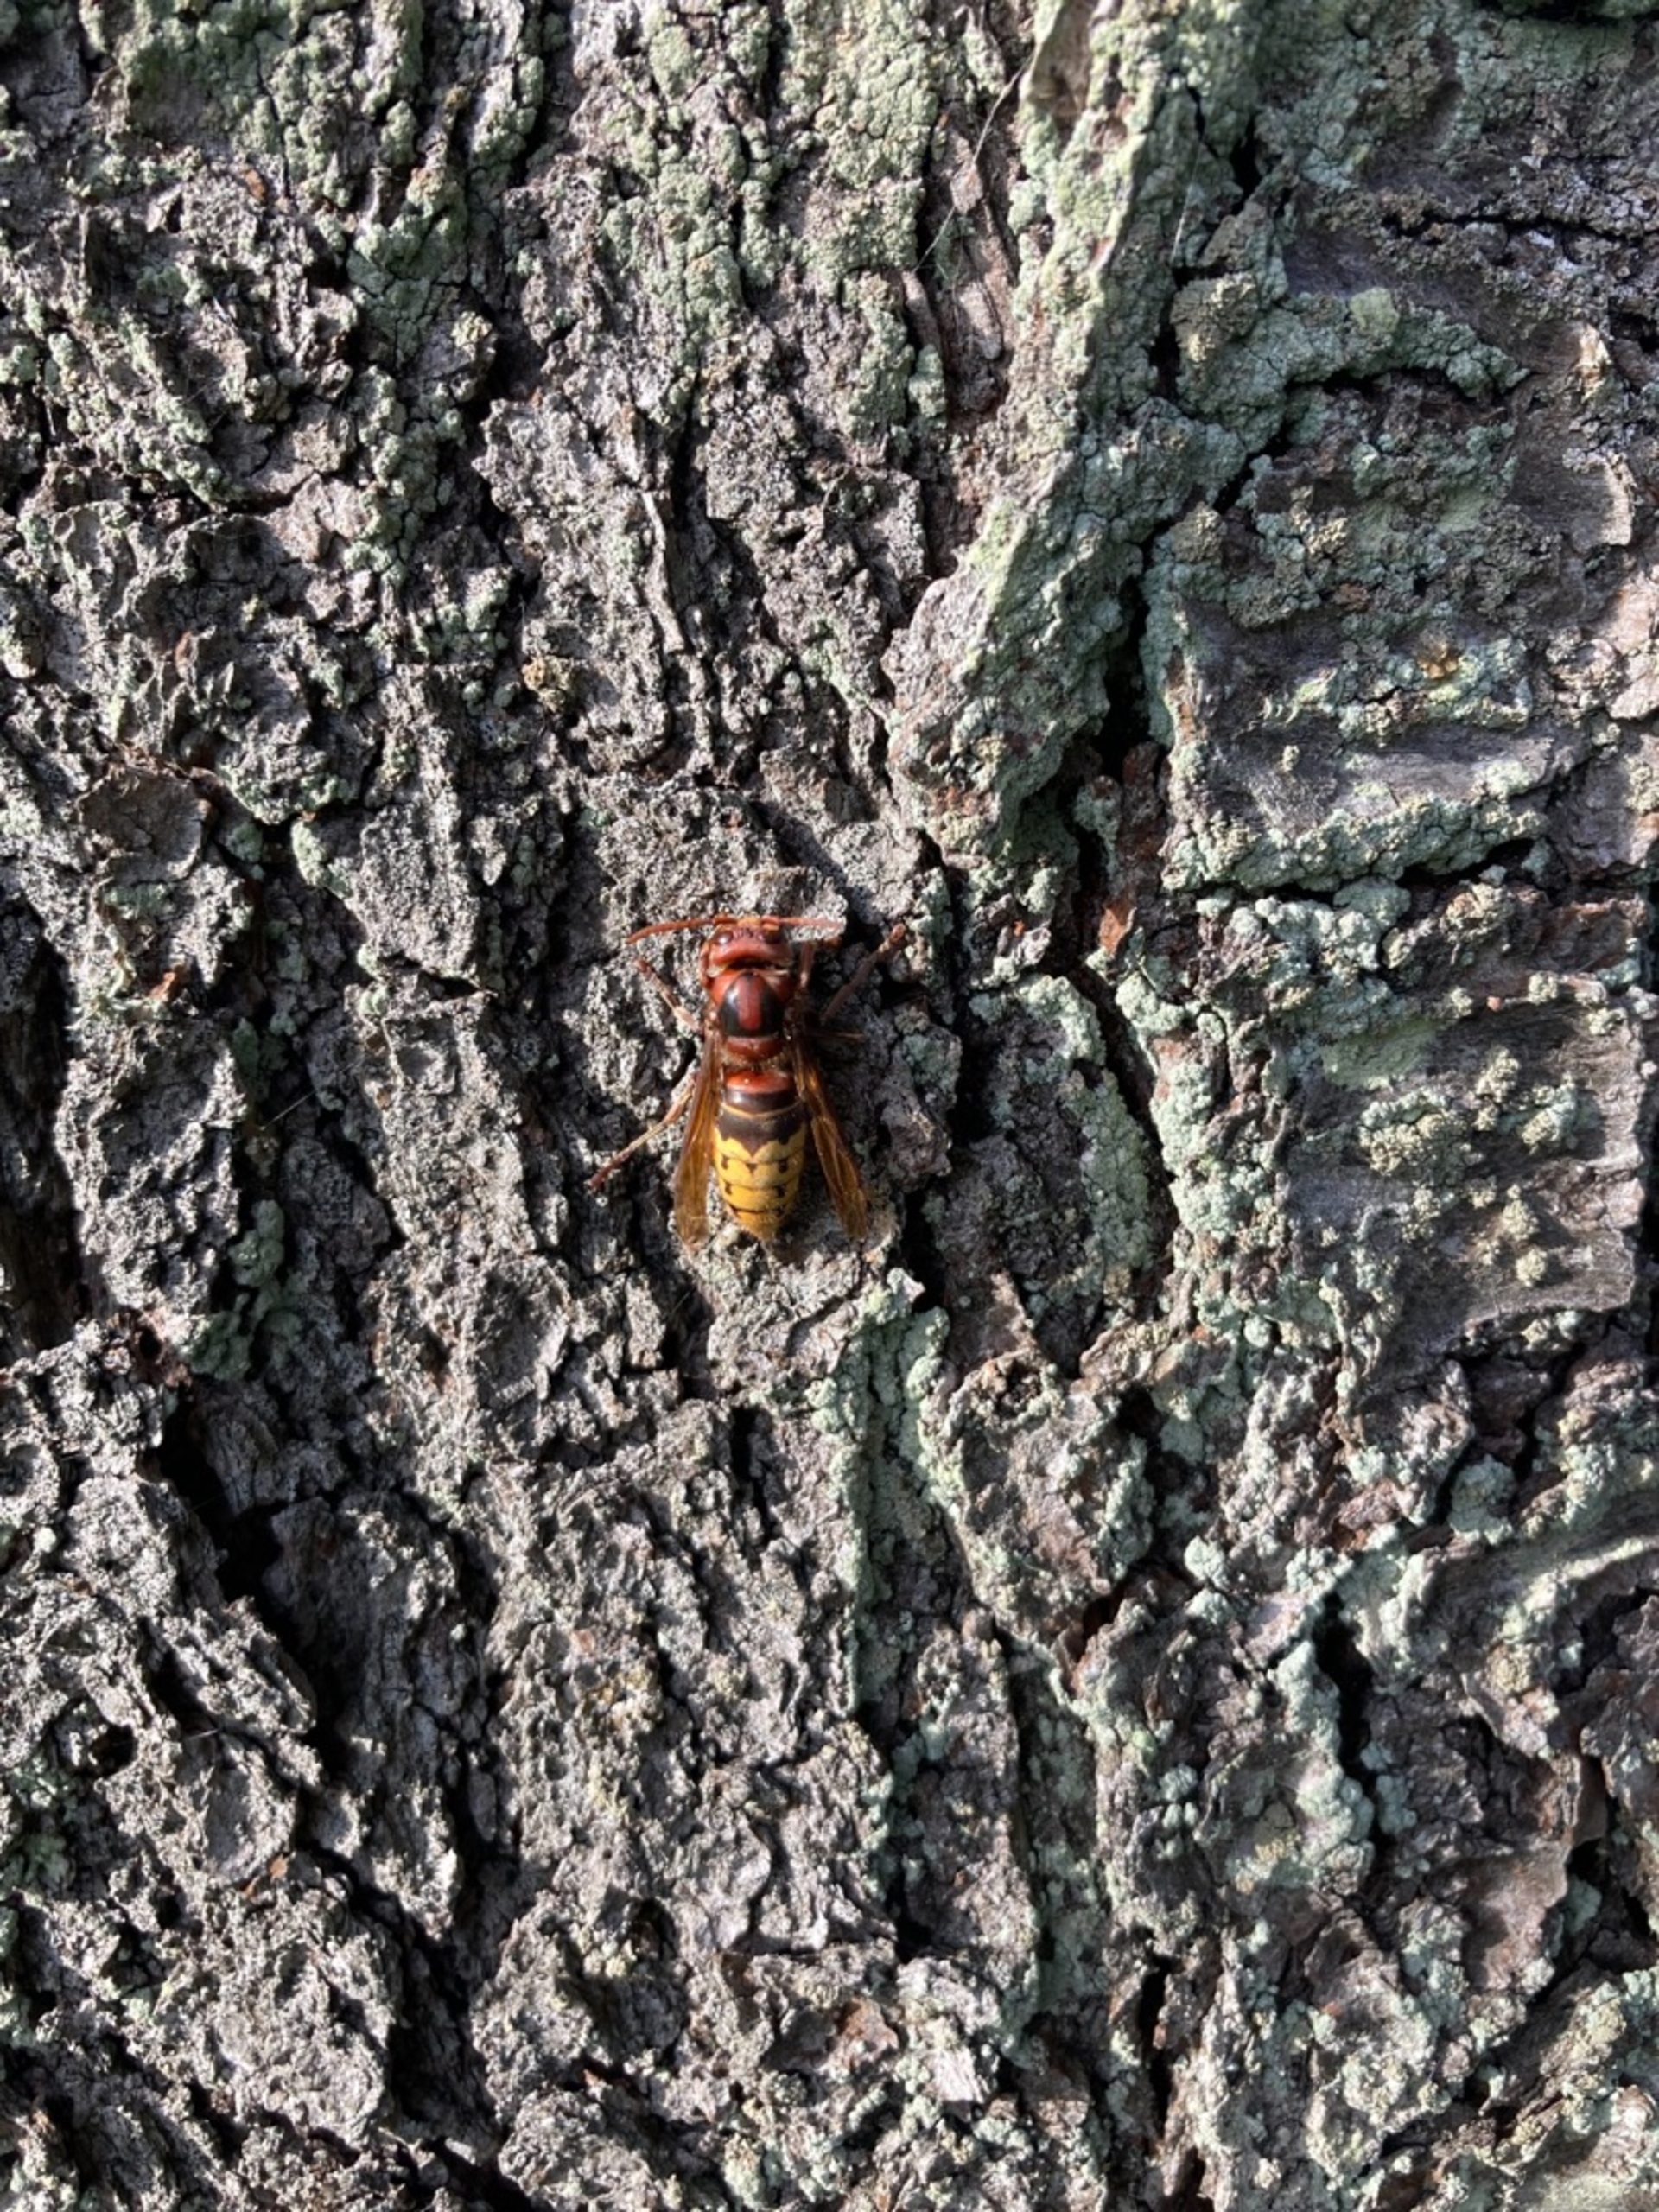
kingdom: Animalia
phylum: Arthropoda
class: Insecta
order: Hymenoptera
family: Vespidae
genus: Vespa
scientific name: Vespa crabro
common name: Stor gedehams
